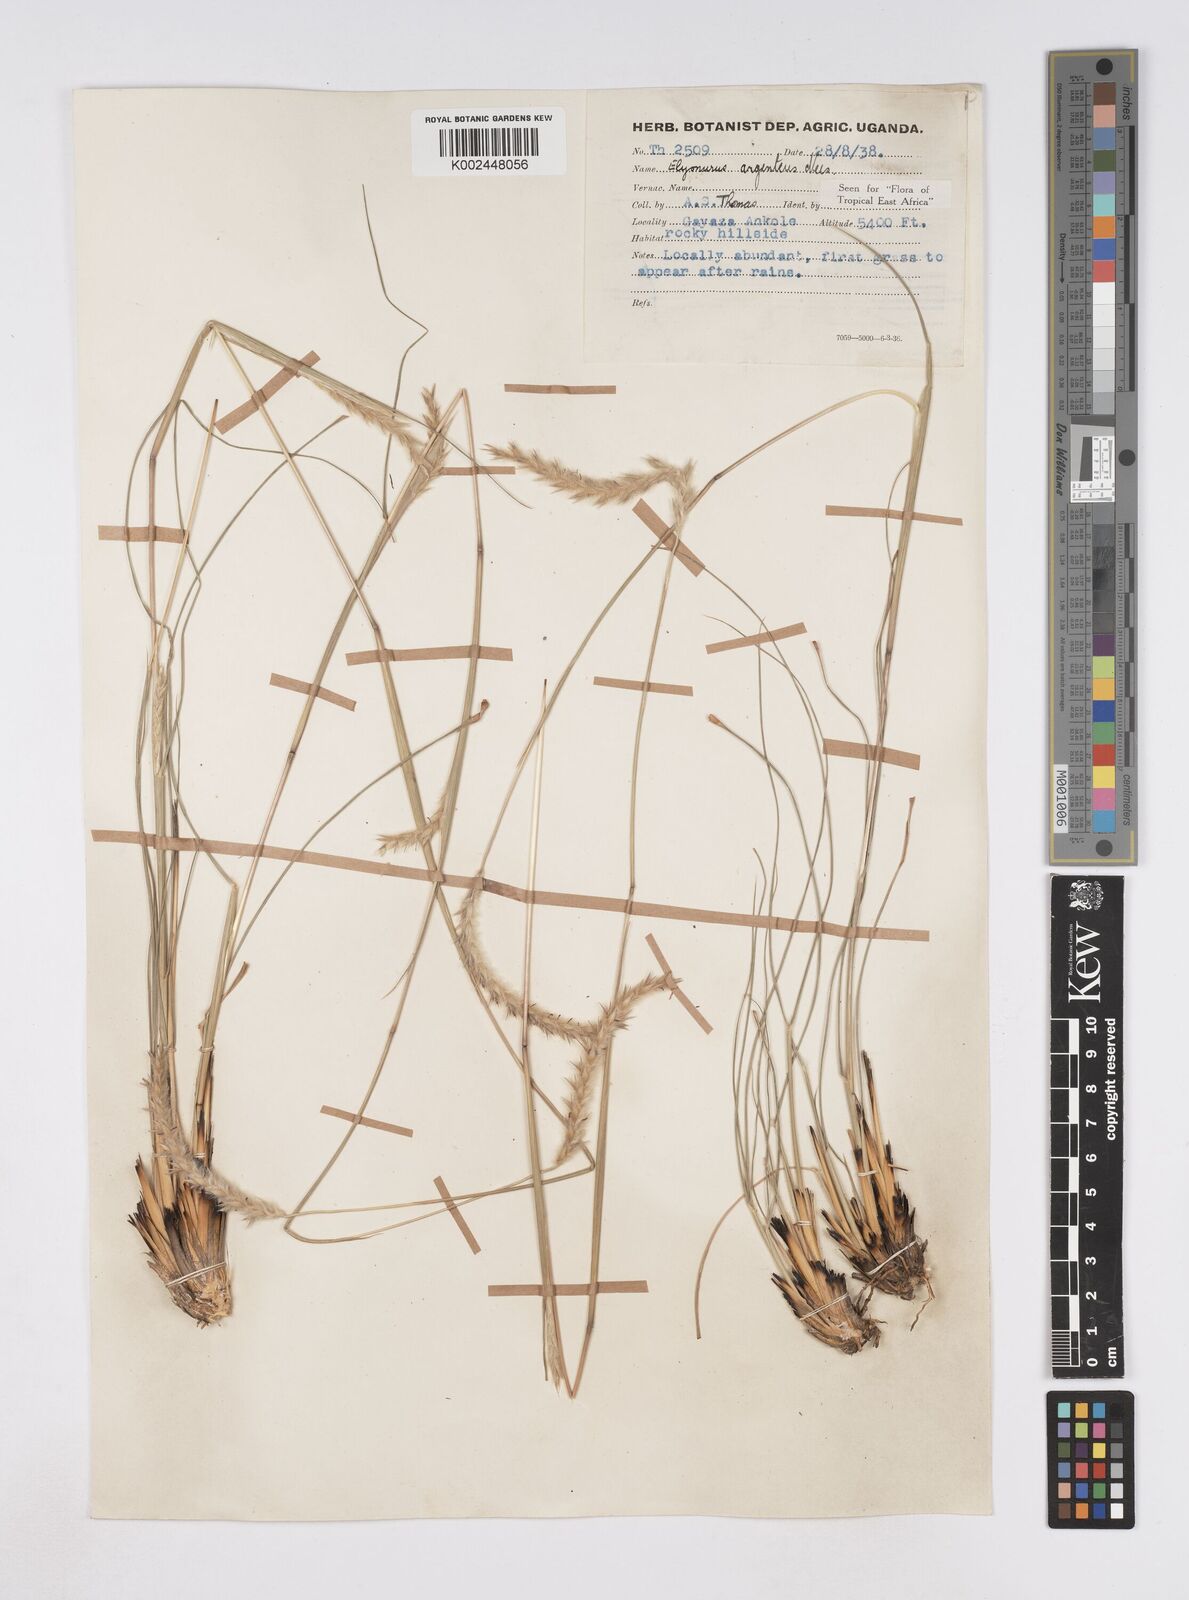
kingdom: Plantae
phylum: Tracheophyta
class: Liliopsida
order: Poales
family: Poaceae
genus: Elionurus
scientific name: Elionurus muticus
